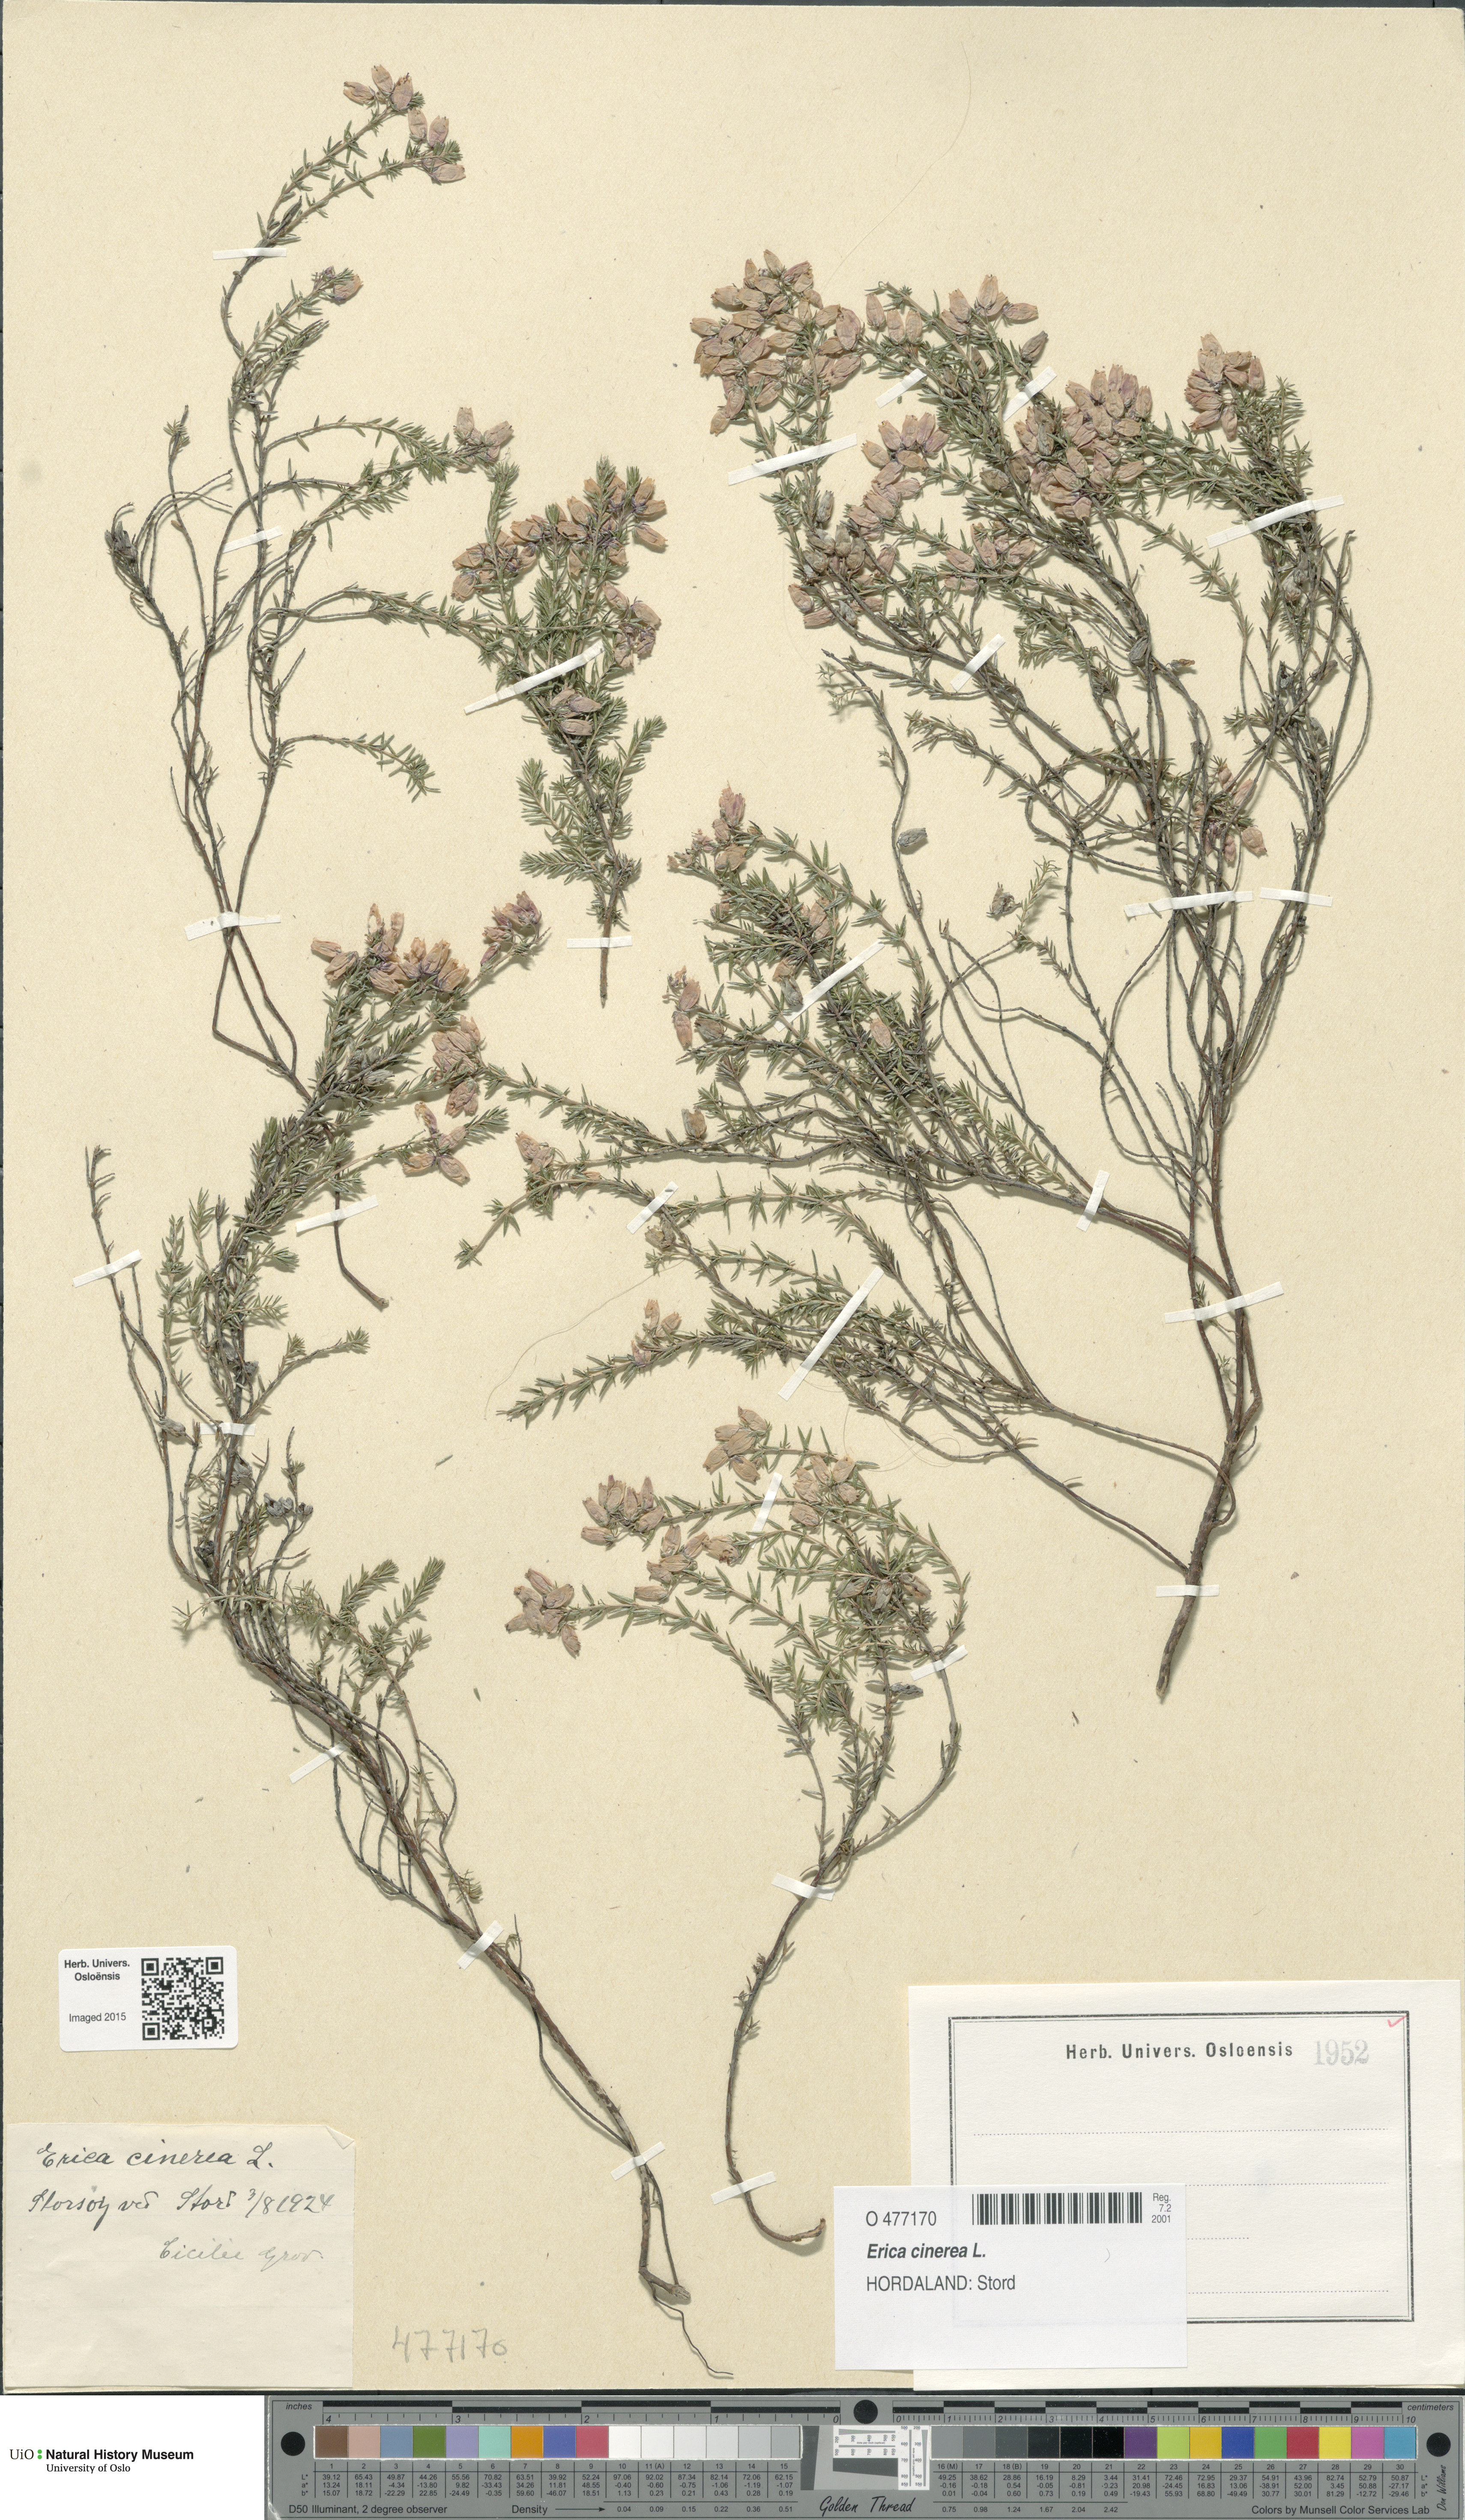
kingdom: Plantae
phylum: Tracheophyta
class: Magnoliopsida
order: Ericales
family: Ericaceae
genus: Erica
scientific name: Erica cinerea
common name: Bell heather
